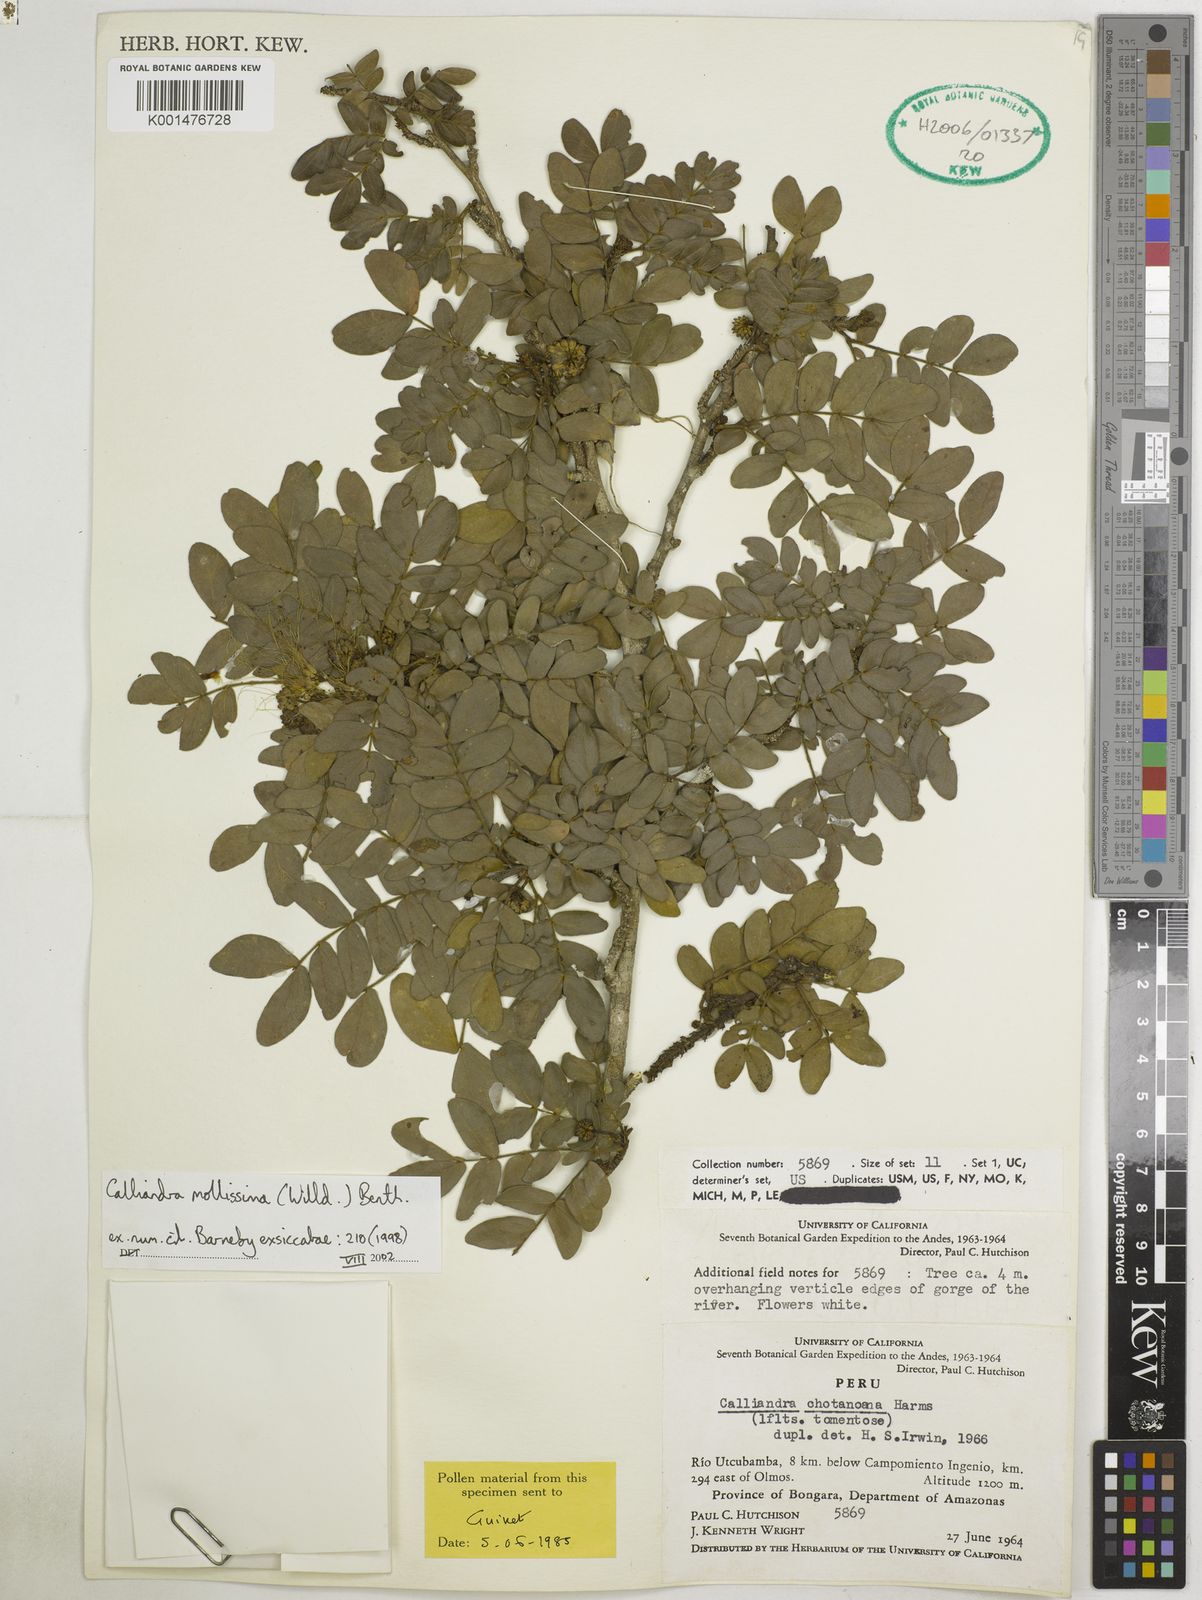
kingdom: Plantae
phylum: Tracheophyta
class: Magnoliopsida
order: Fabales
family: Fabaceae
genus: Calliandra
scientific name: Calliandra mollissima
